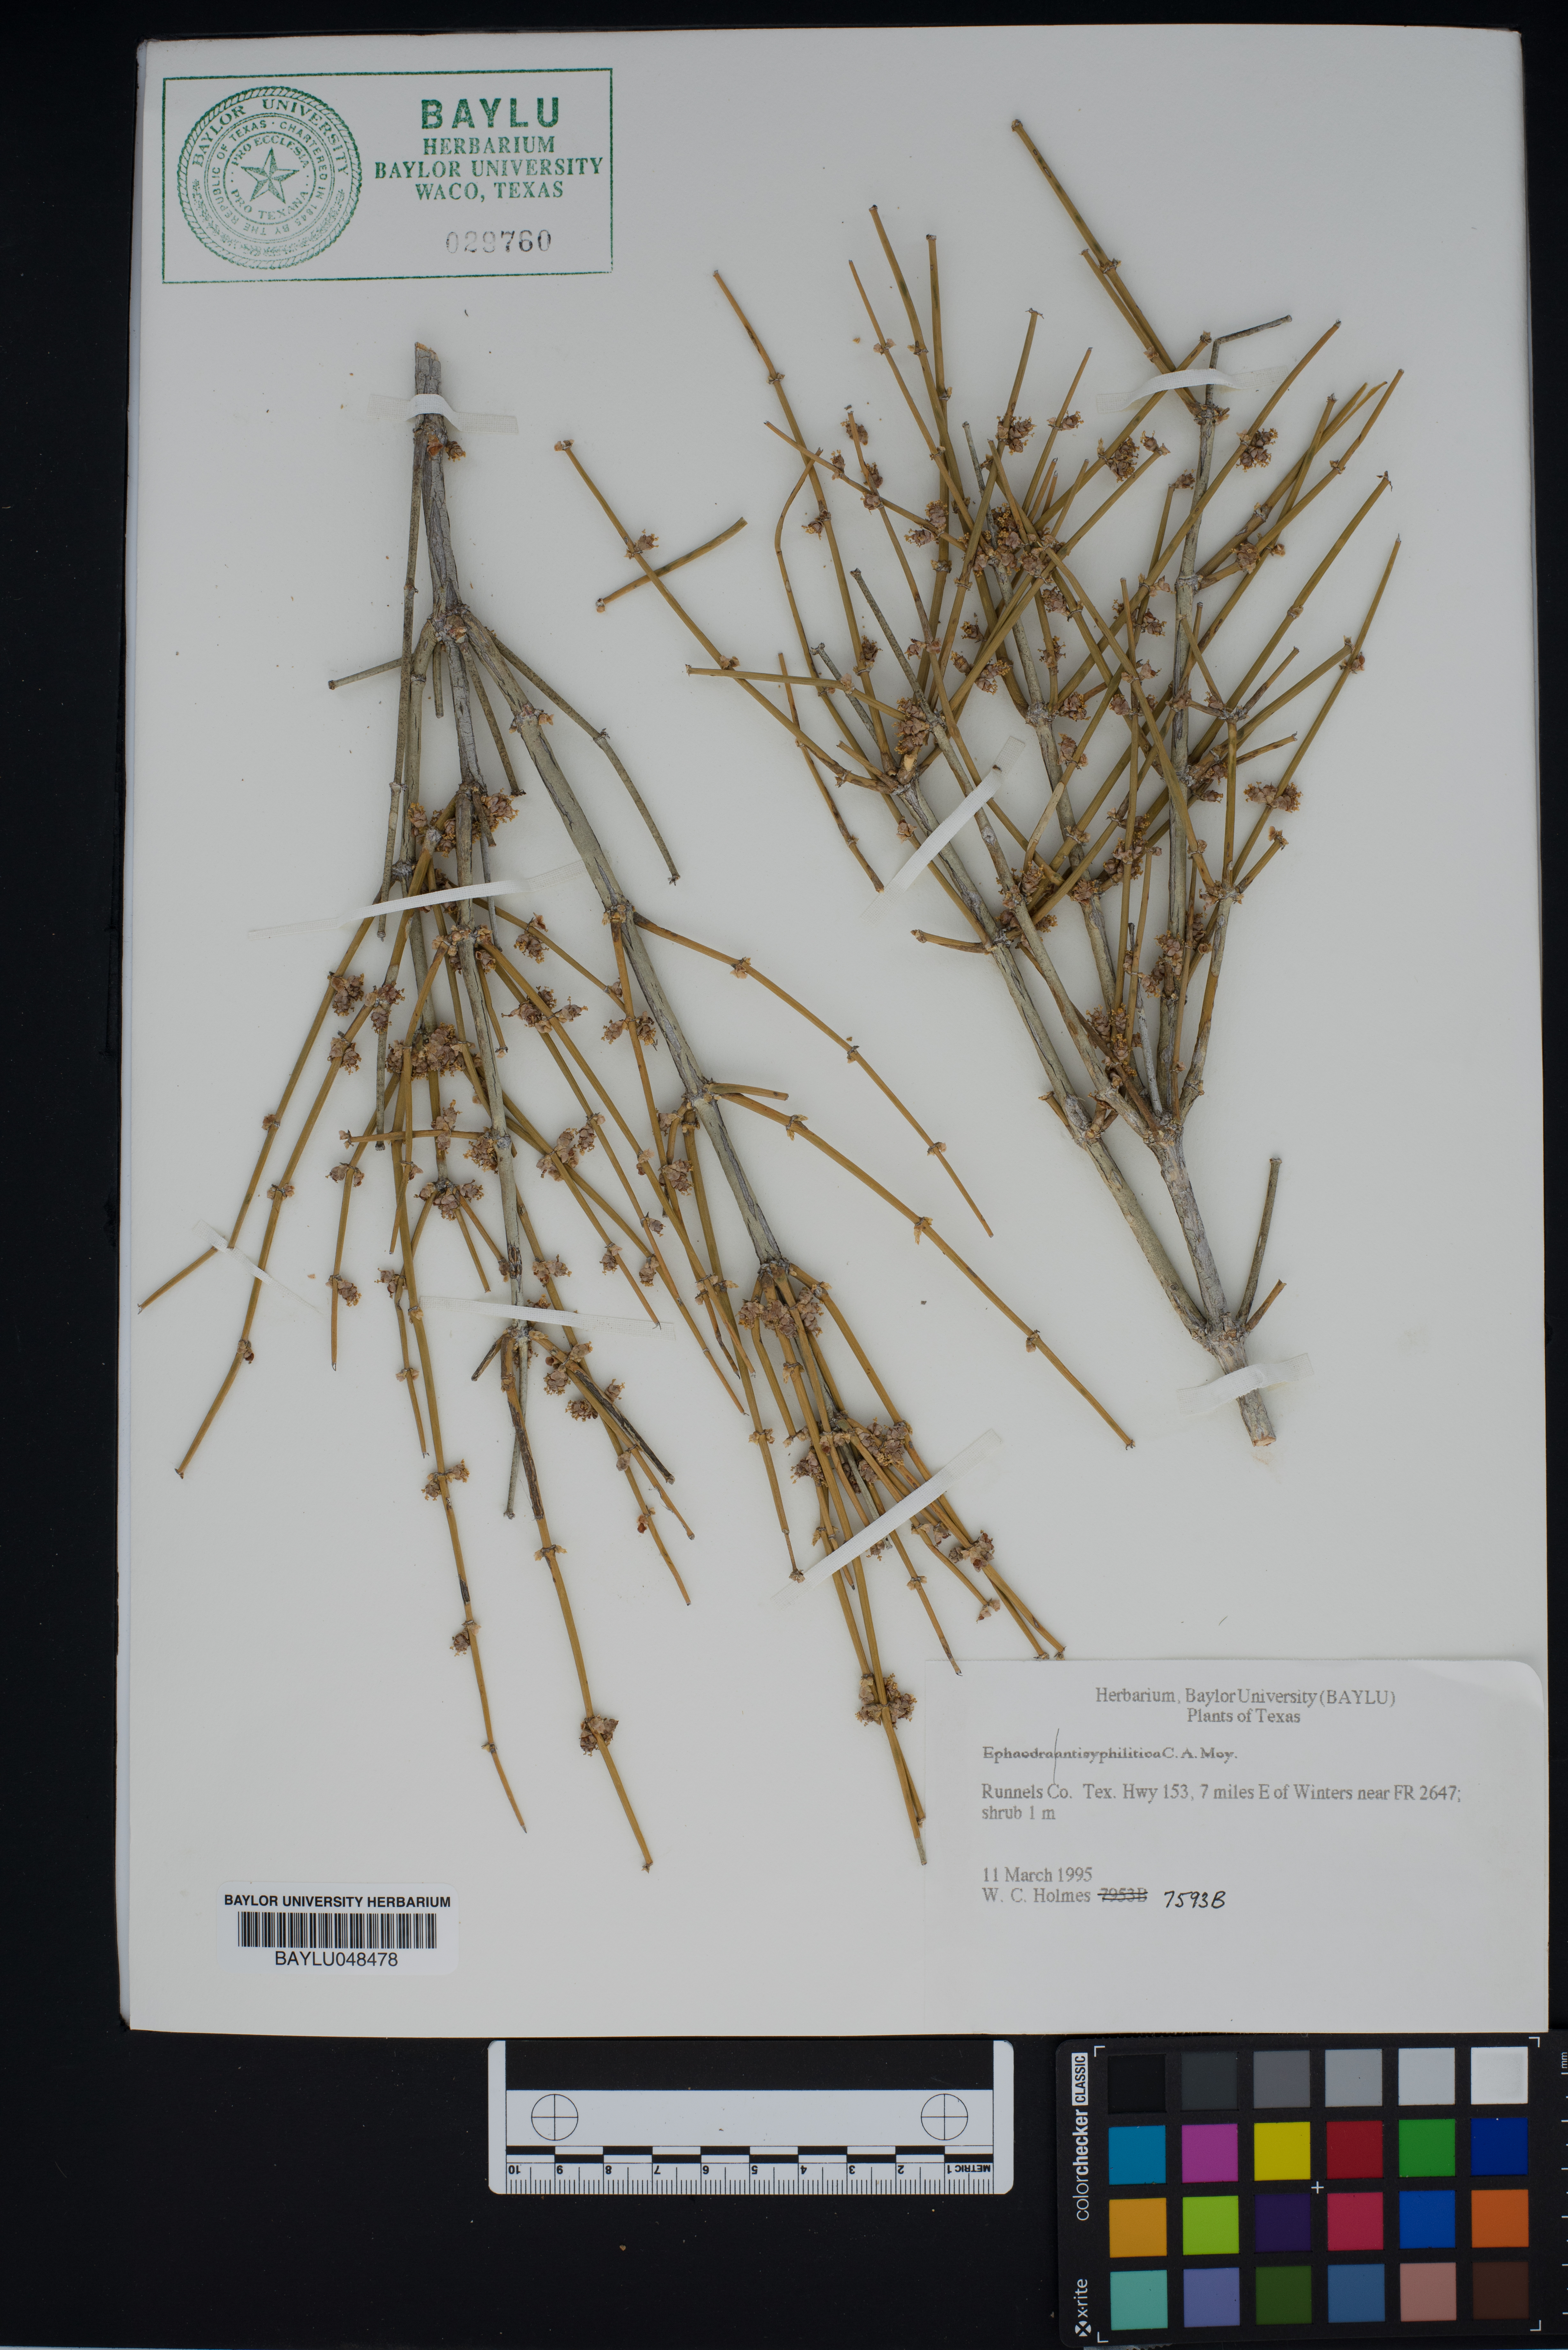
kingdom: Plantae
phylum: Tracheophyta
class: Gnetopsida
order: Ephedrales
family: Ephedraceae
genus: Ephedra
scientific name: Ephedra antisyphilitica
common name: Clipweed
